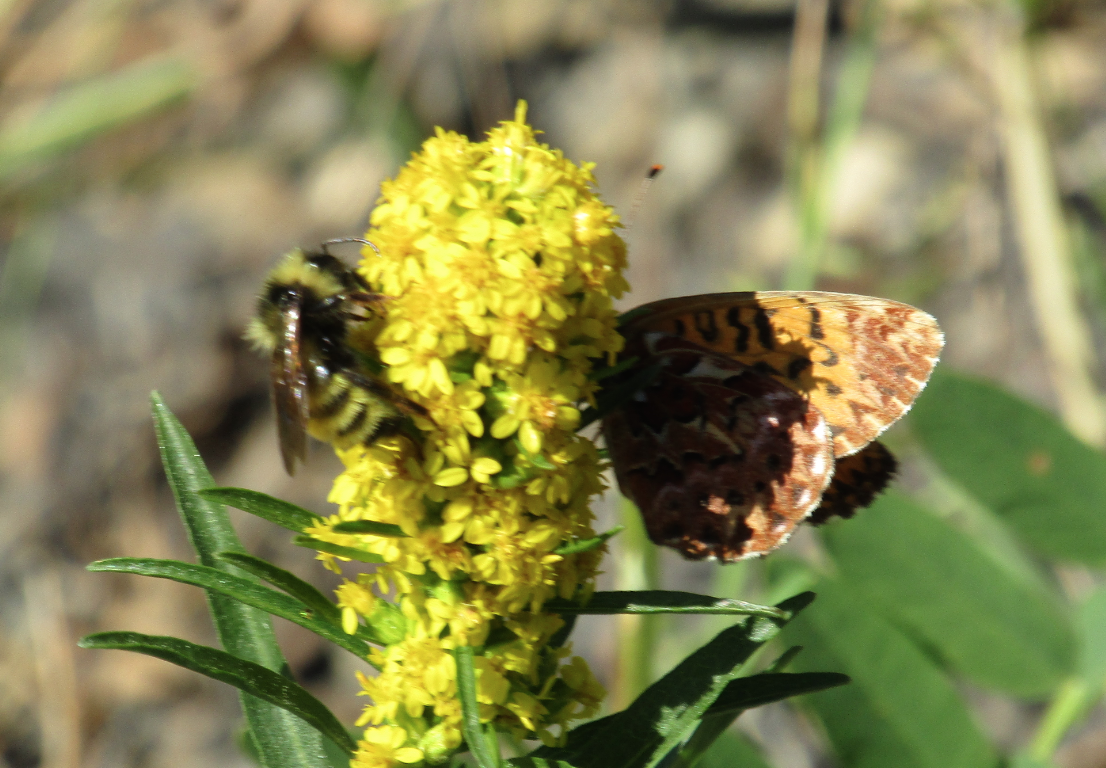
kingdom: Animalia
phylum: Arthropoda
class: Insecta
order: Lepidoptera
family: Nymphalidae
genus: Boloria
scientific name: Boloria chariclea
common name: Arctic Fritillary
